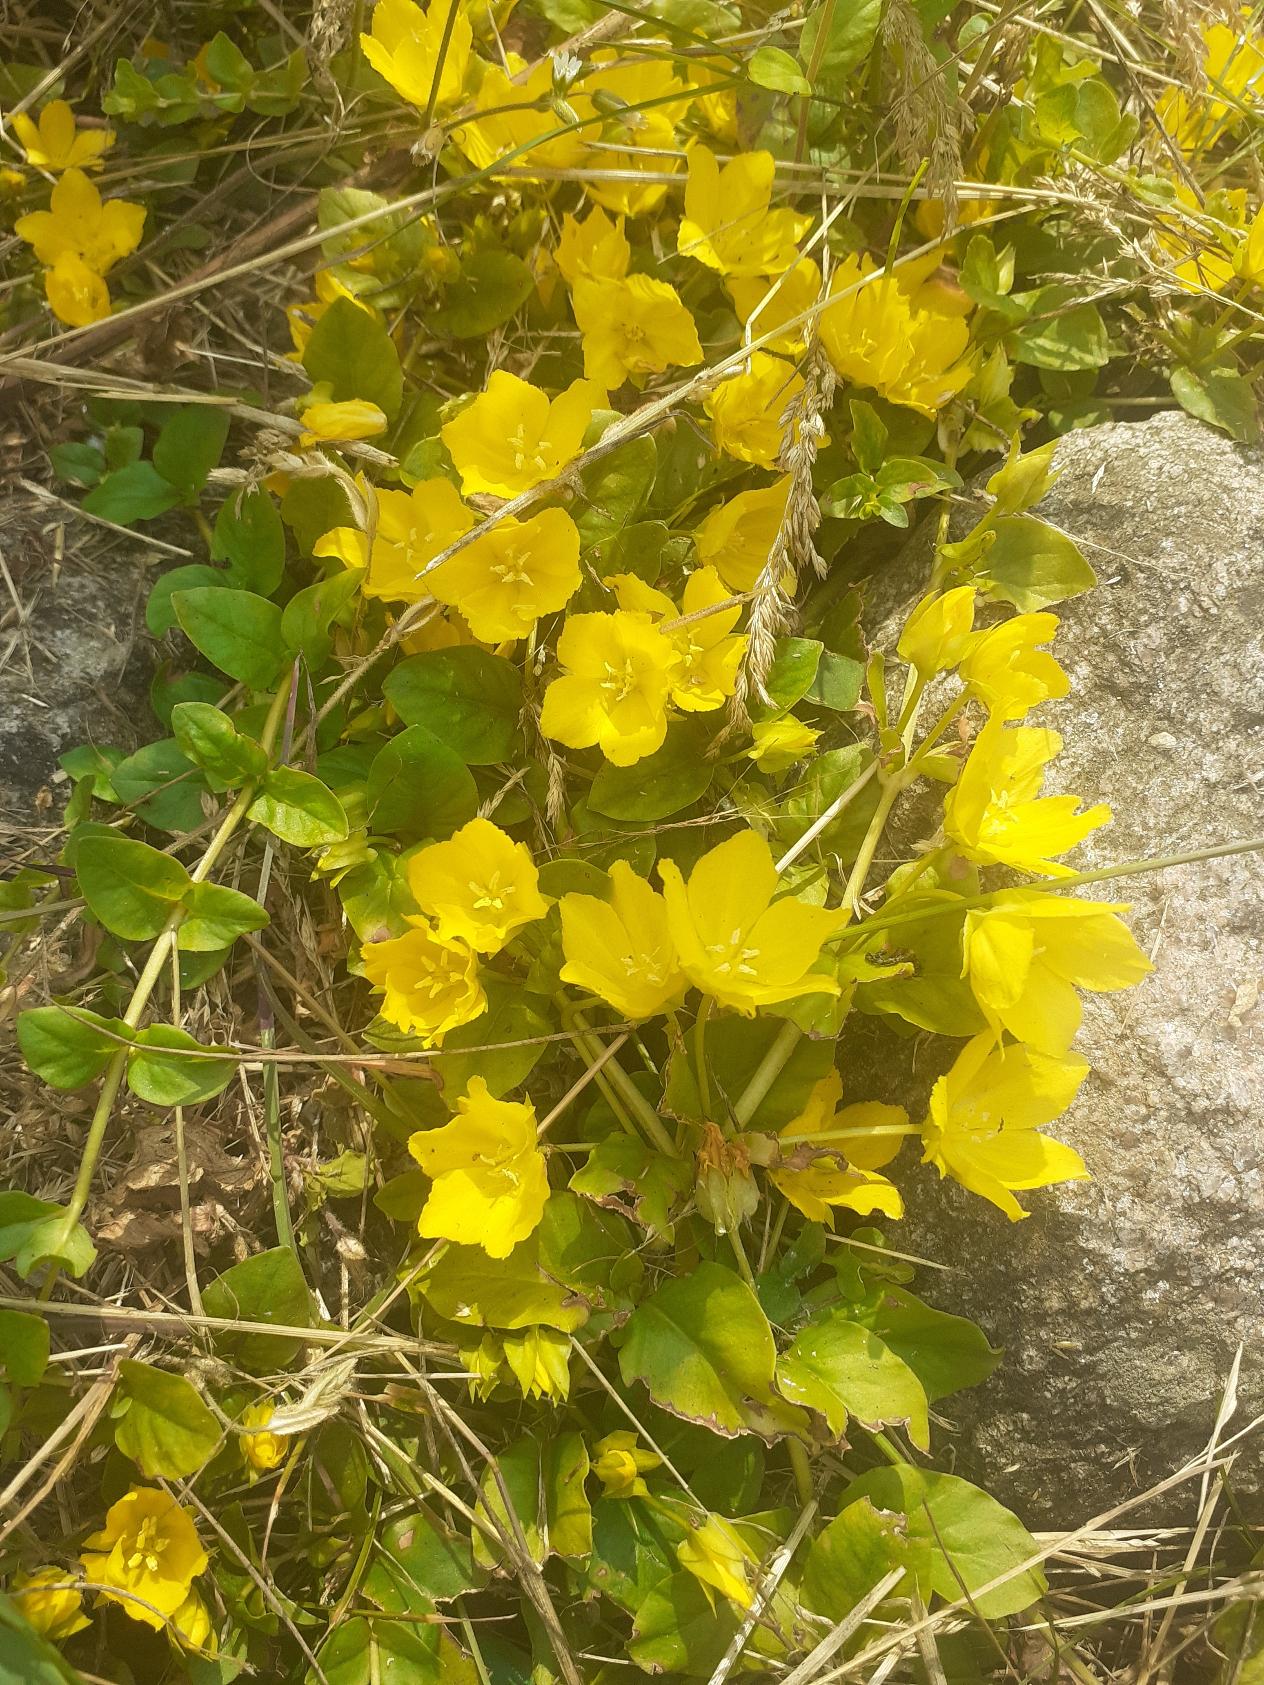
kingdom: Plantae
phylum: Tracheophyta
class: Magnoliopsida
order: Ericales
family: Primulaceae
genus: Lysimachia
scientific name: Lysimachia nummularia
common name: Pengebladet fredløs
